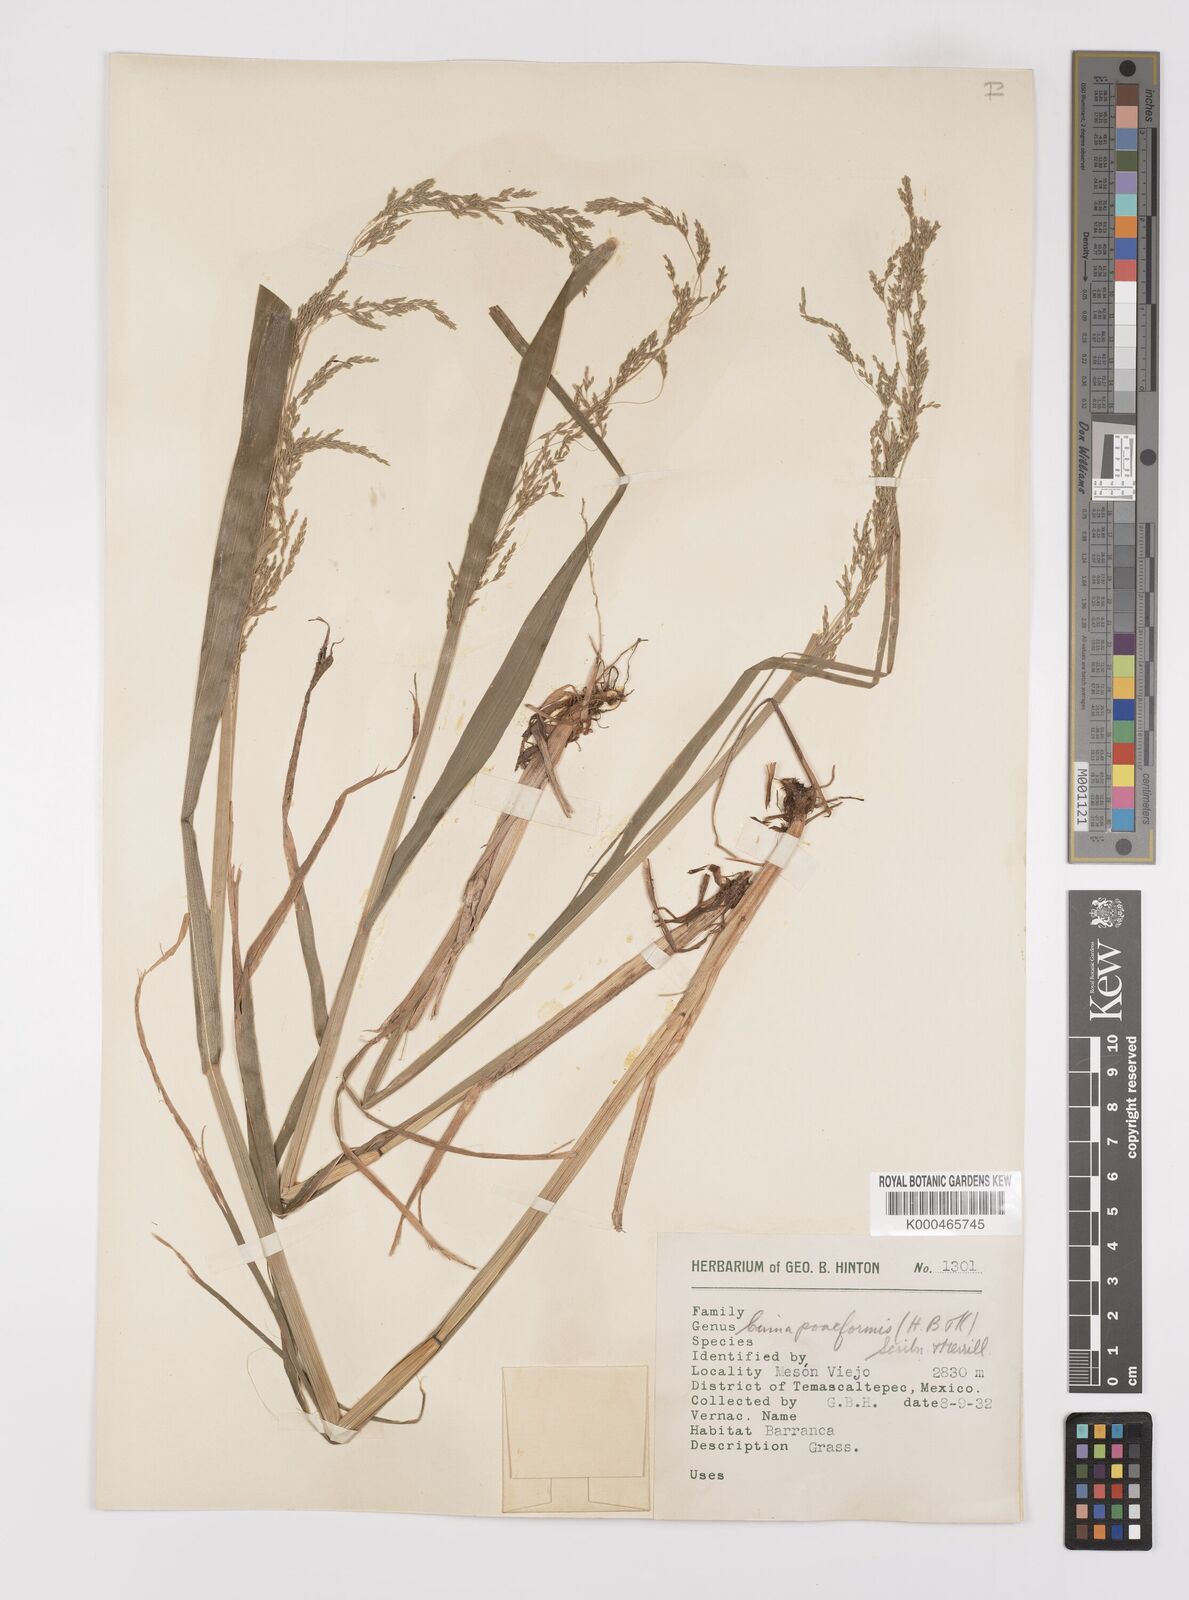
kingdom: Plantae
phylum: Tracheophyta
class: Liliopsida
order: Poales
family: Poaceae
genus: Cinnastrum
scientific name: Cinnastrum poiforme
